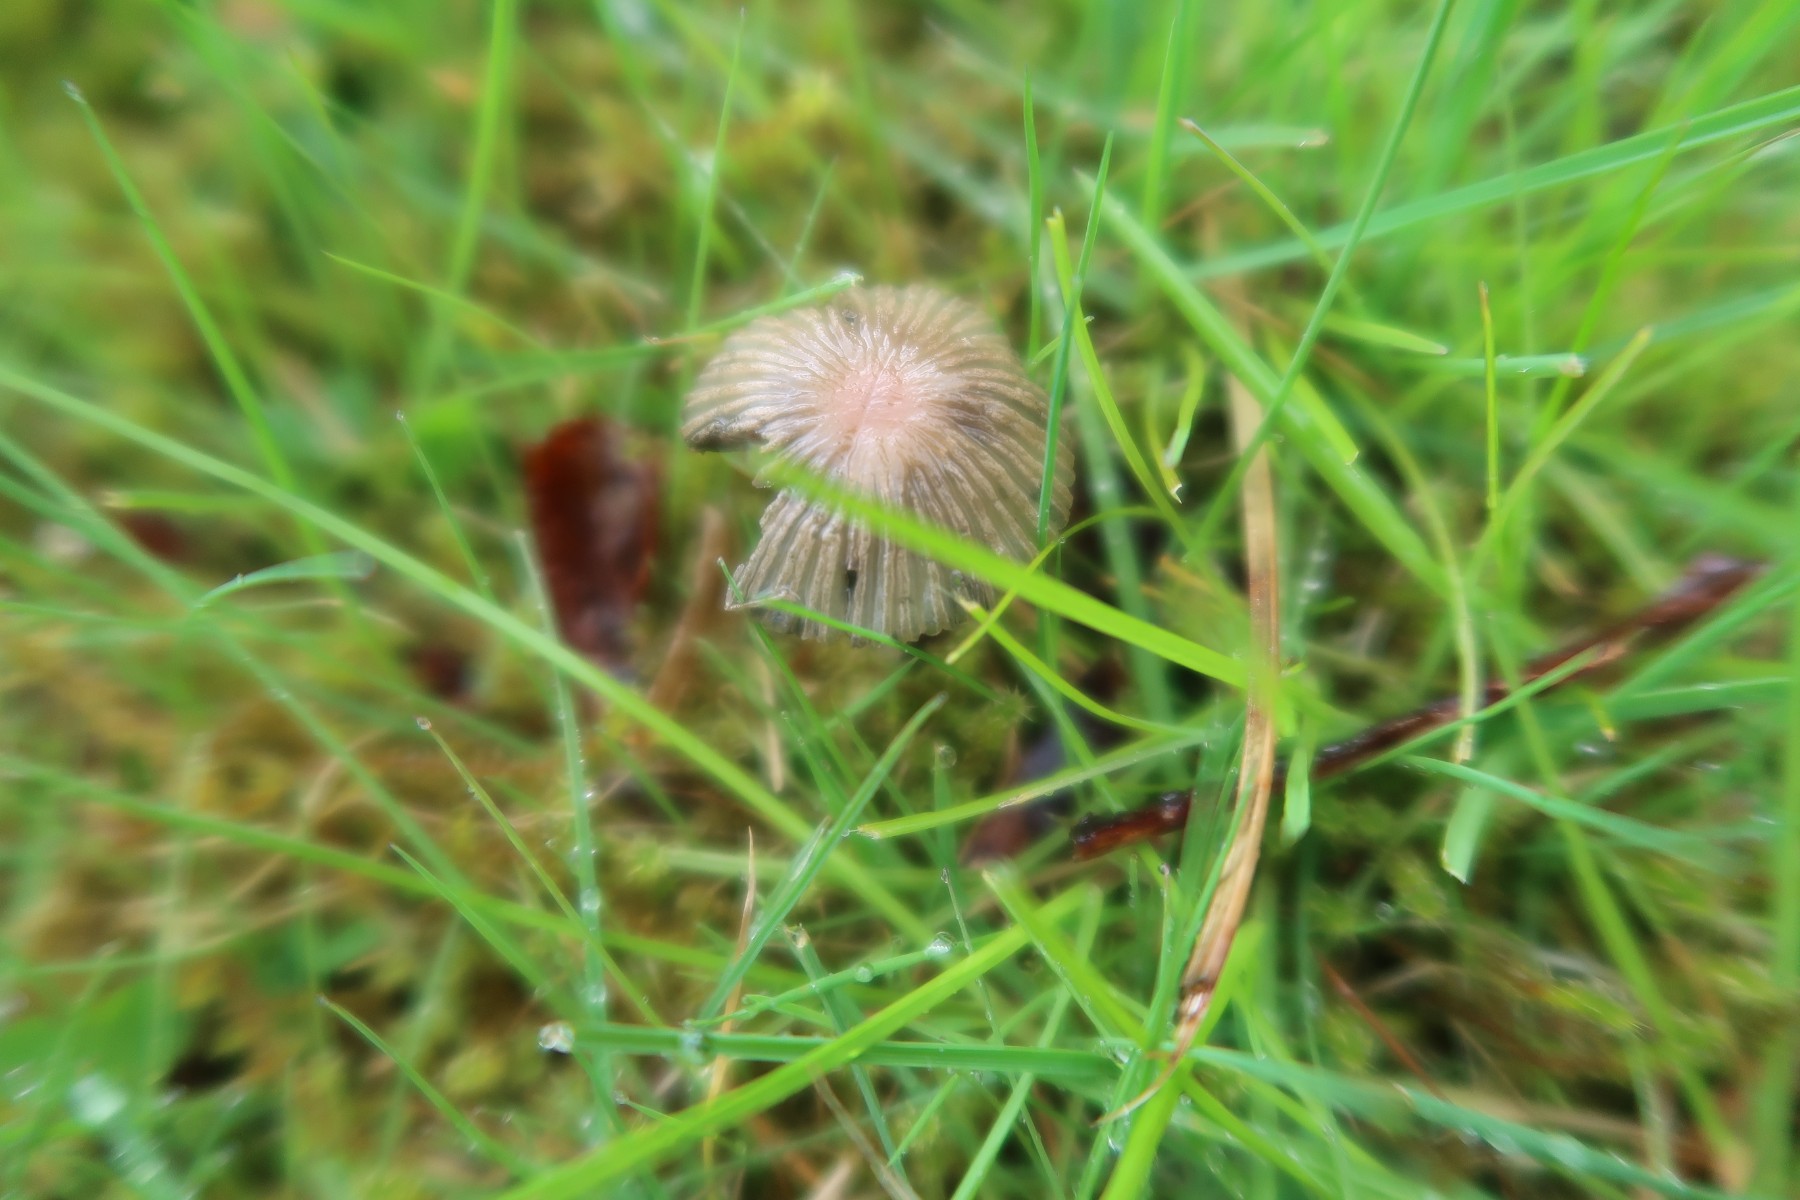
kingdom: Fungi
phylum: Basidiomycota
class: Agaricomycetes
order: Agaricales
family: Psathyrellaceae
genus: Parasola
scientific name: Parasola schroeteri
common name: bredsporet hjulhat
